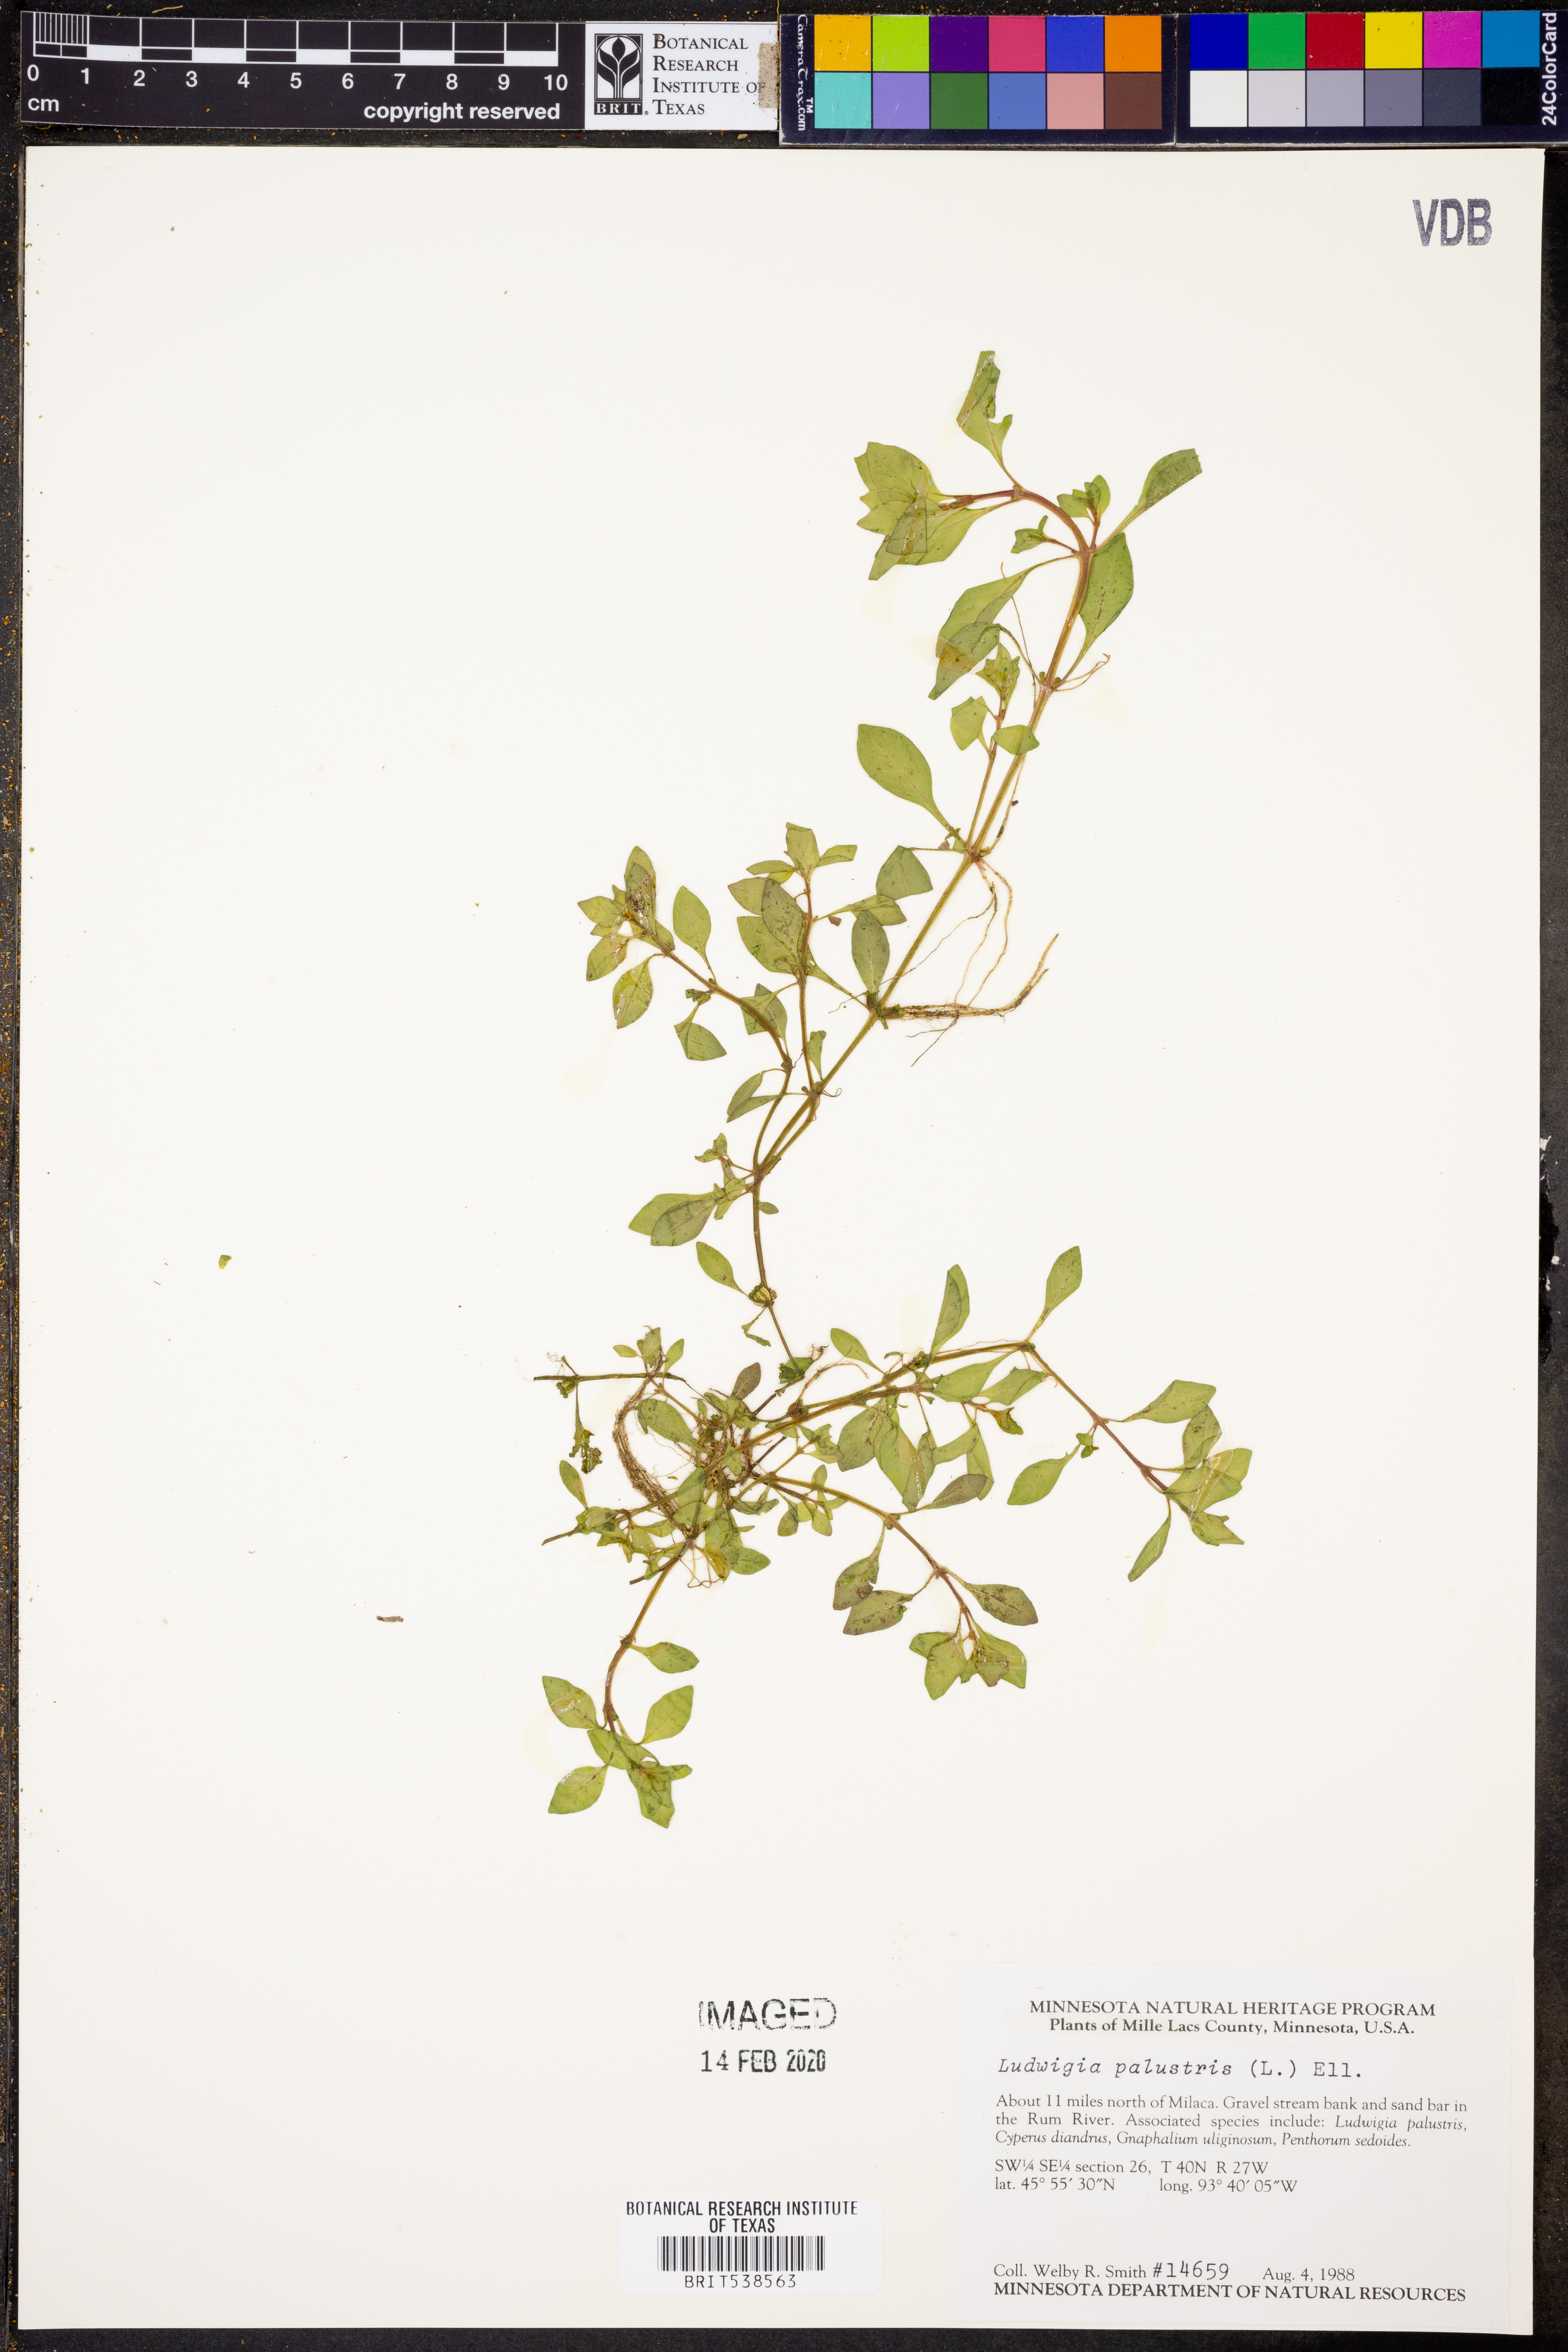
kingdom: Plantae
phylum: Tracheophyta
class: Magnoliopsida
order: Myrtales
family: Onagraceae
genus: Ludwigia
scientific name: Ludwigia palustris
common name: Hampshire-purslane
